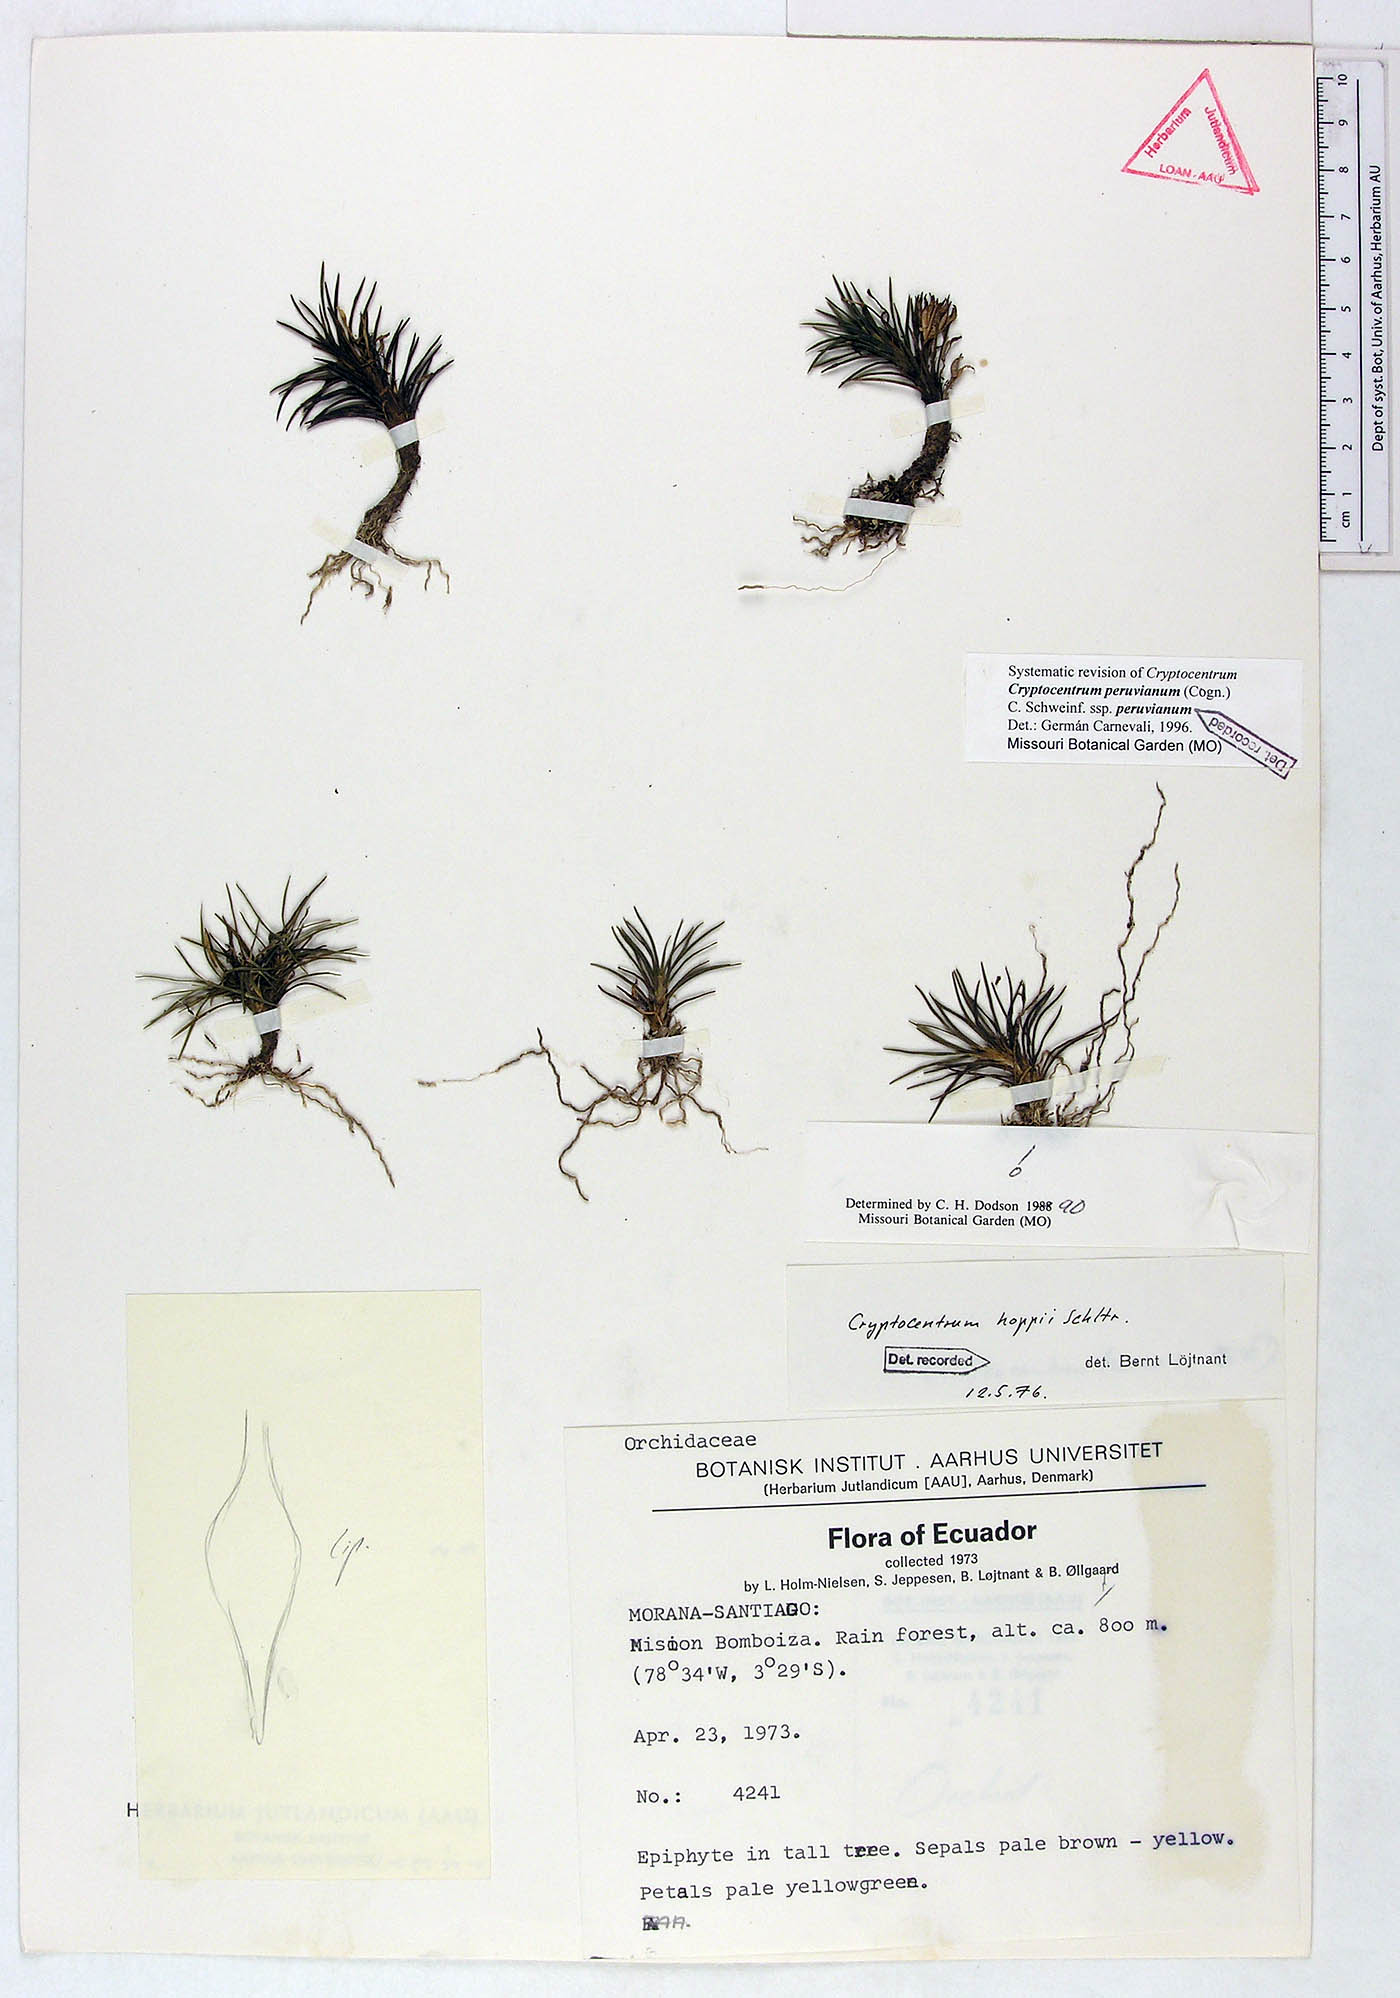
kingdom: Plantae
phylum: Tracheophyta
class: Liliopsida
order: Asparagales
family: Orchidaceae
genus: Maxillaria
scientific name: Maxillaria novoae
